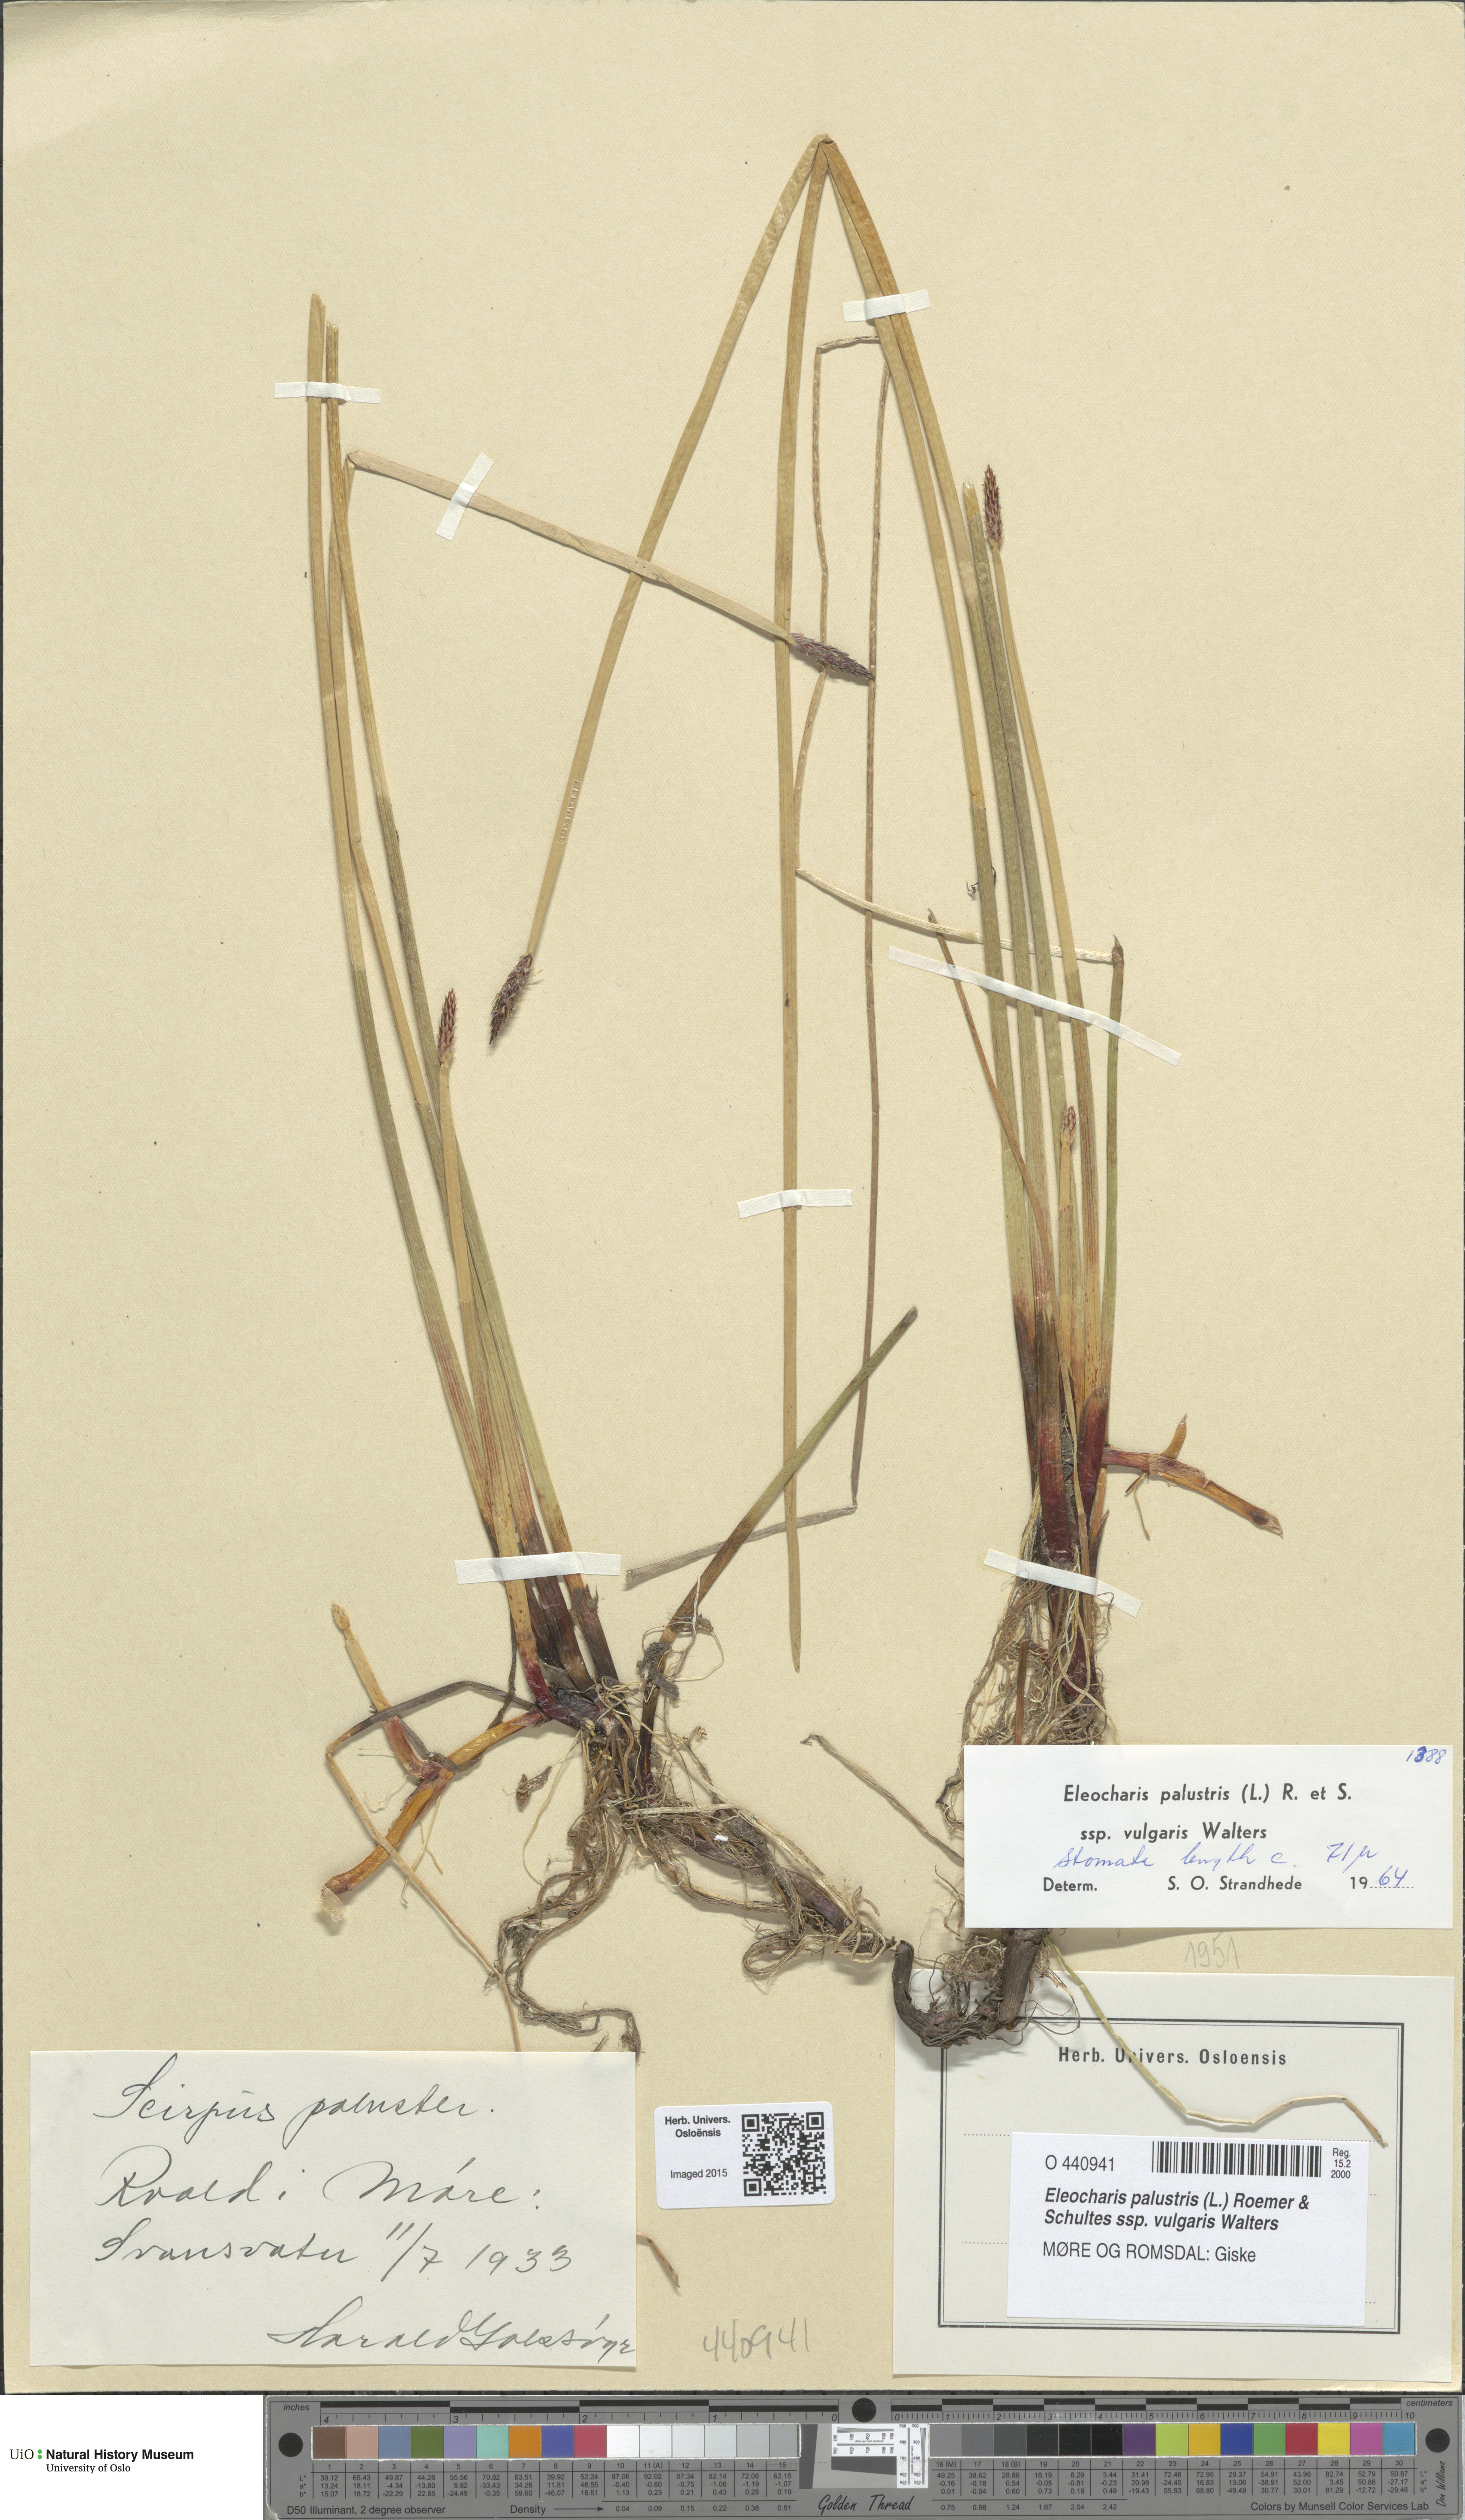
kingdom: Plantae
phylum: Tracheophyta
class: Liliopsida
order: Poales
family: Cyperaceae
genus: Eleocharis
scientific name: Eleocharis palustris
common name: Common spike-rush
